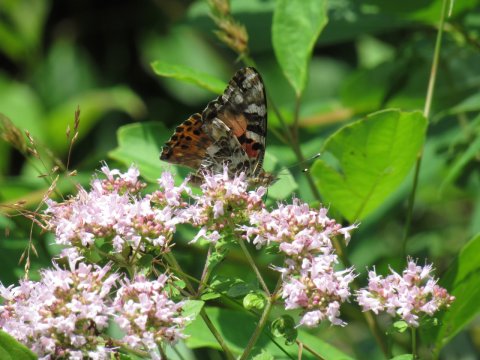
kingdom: Animalia
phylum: Arthropoda
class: Insecta
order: Lepidoptera
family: Nymphalidae
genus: Vanessa
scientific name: Vanessa cardui
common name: Painted Lady
